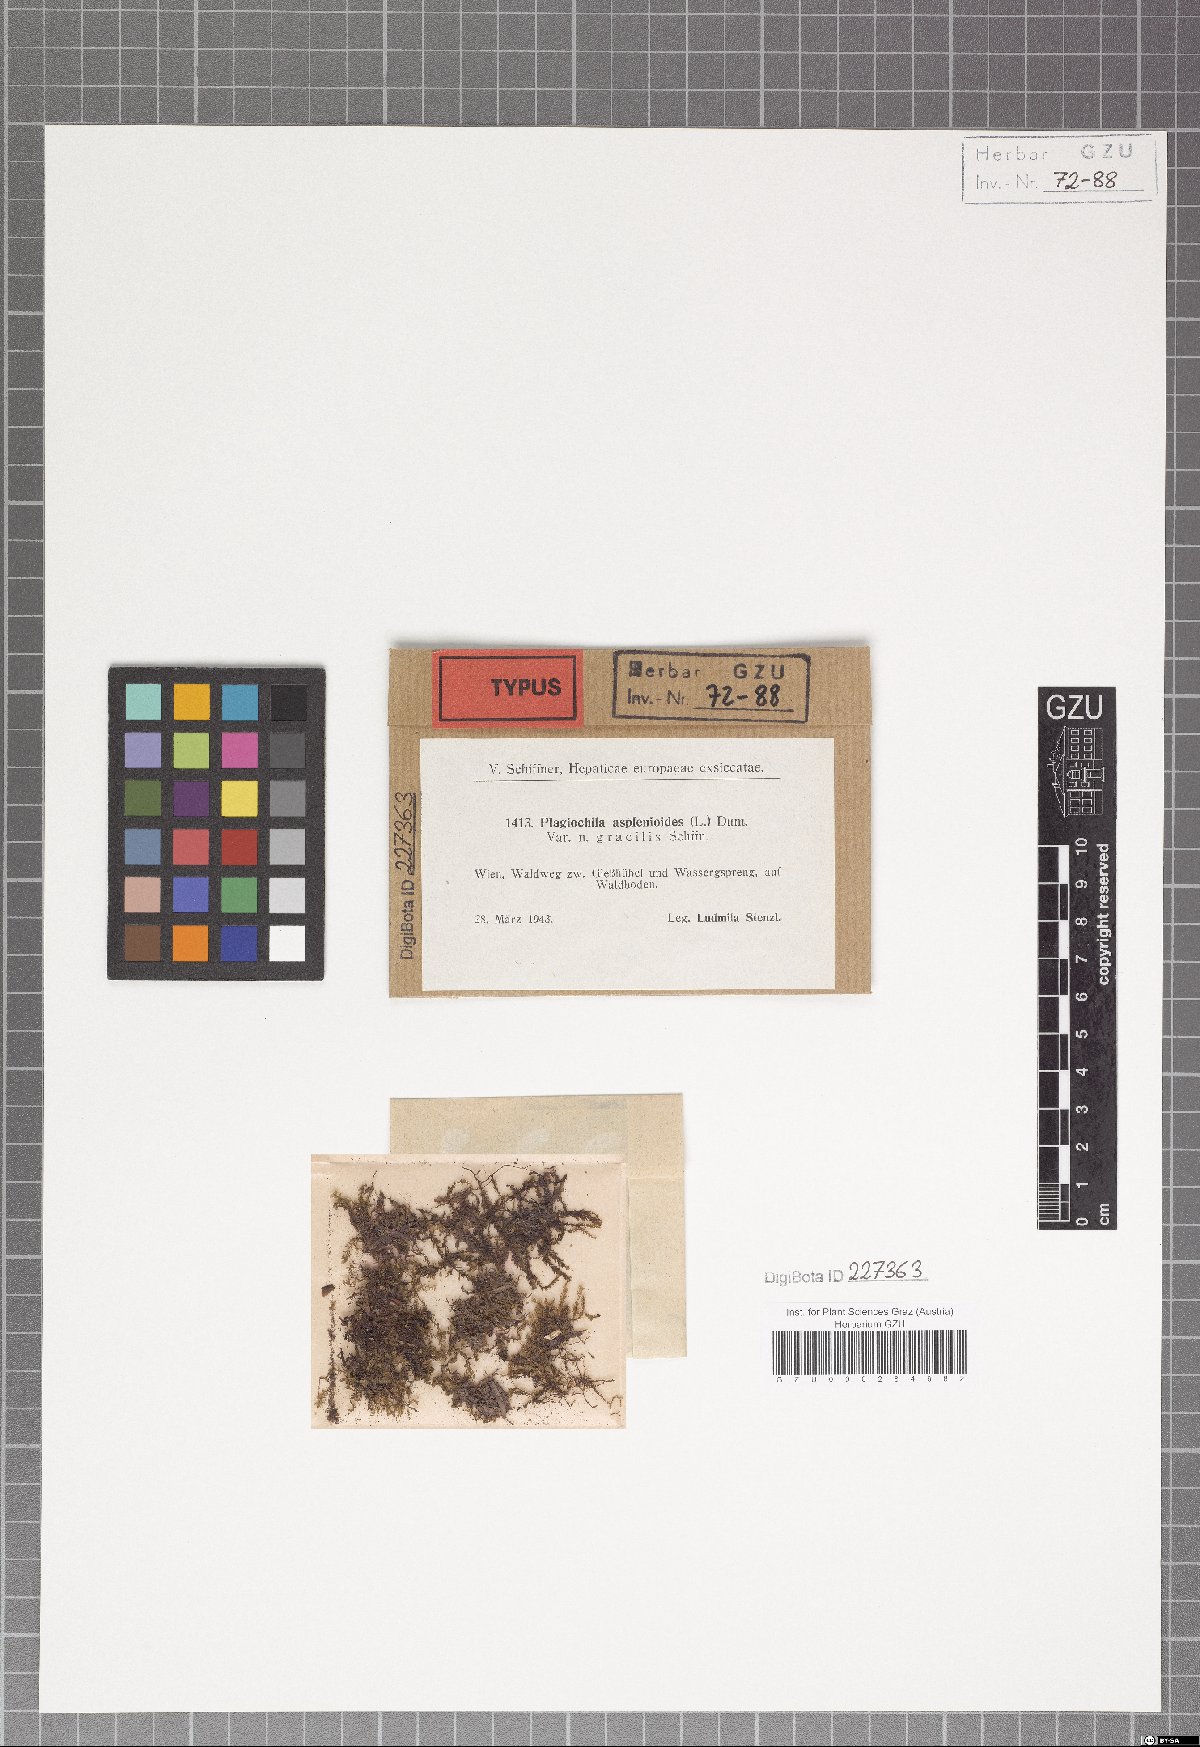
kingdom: Plantae
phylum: Marchantiophyta
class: Jungermanniopsida
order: Jungermanniales
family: Plagiochilaceae
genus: Plagiochila
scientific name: Plagiochila asplenioides
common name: Greater featherwort
